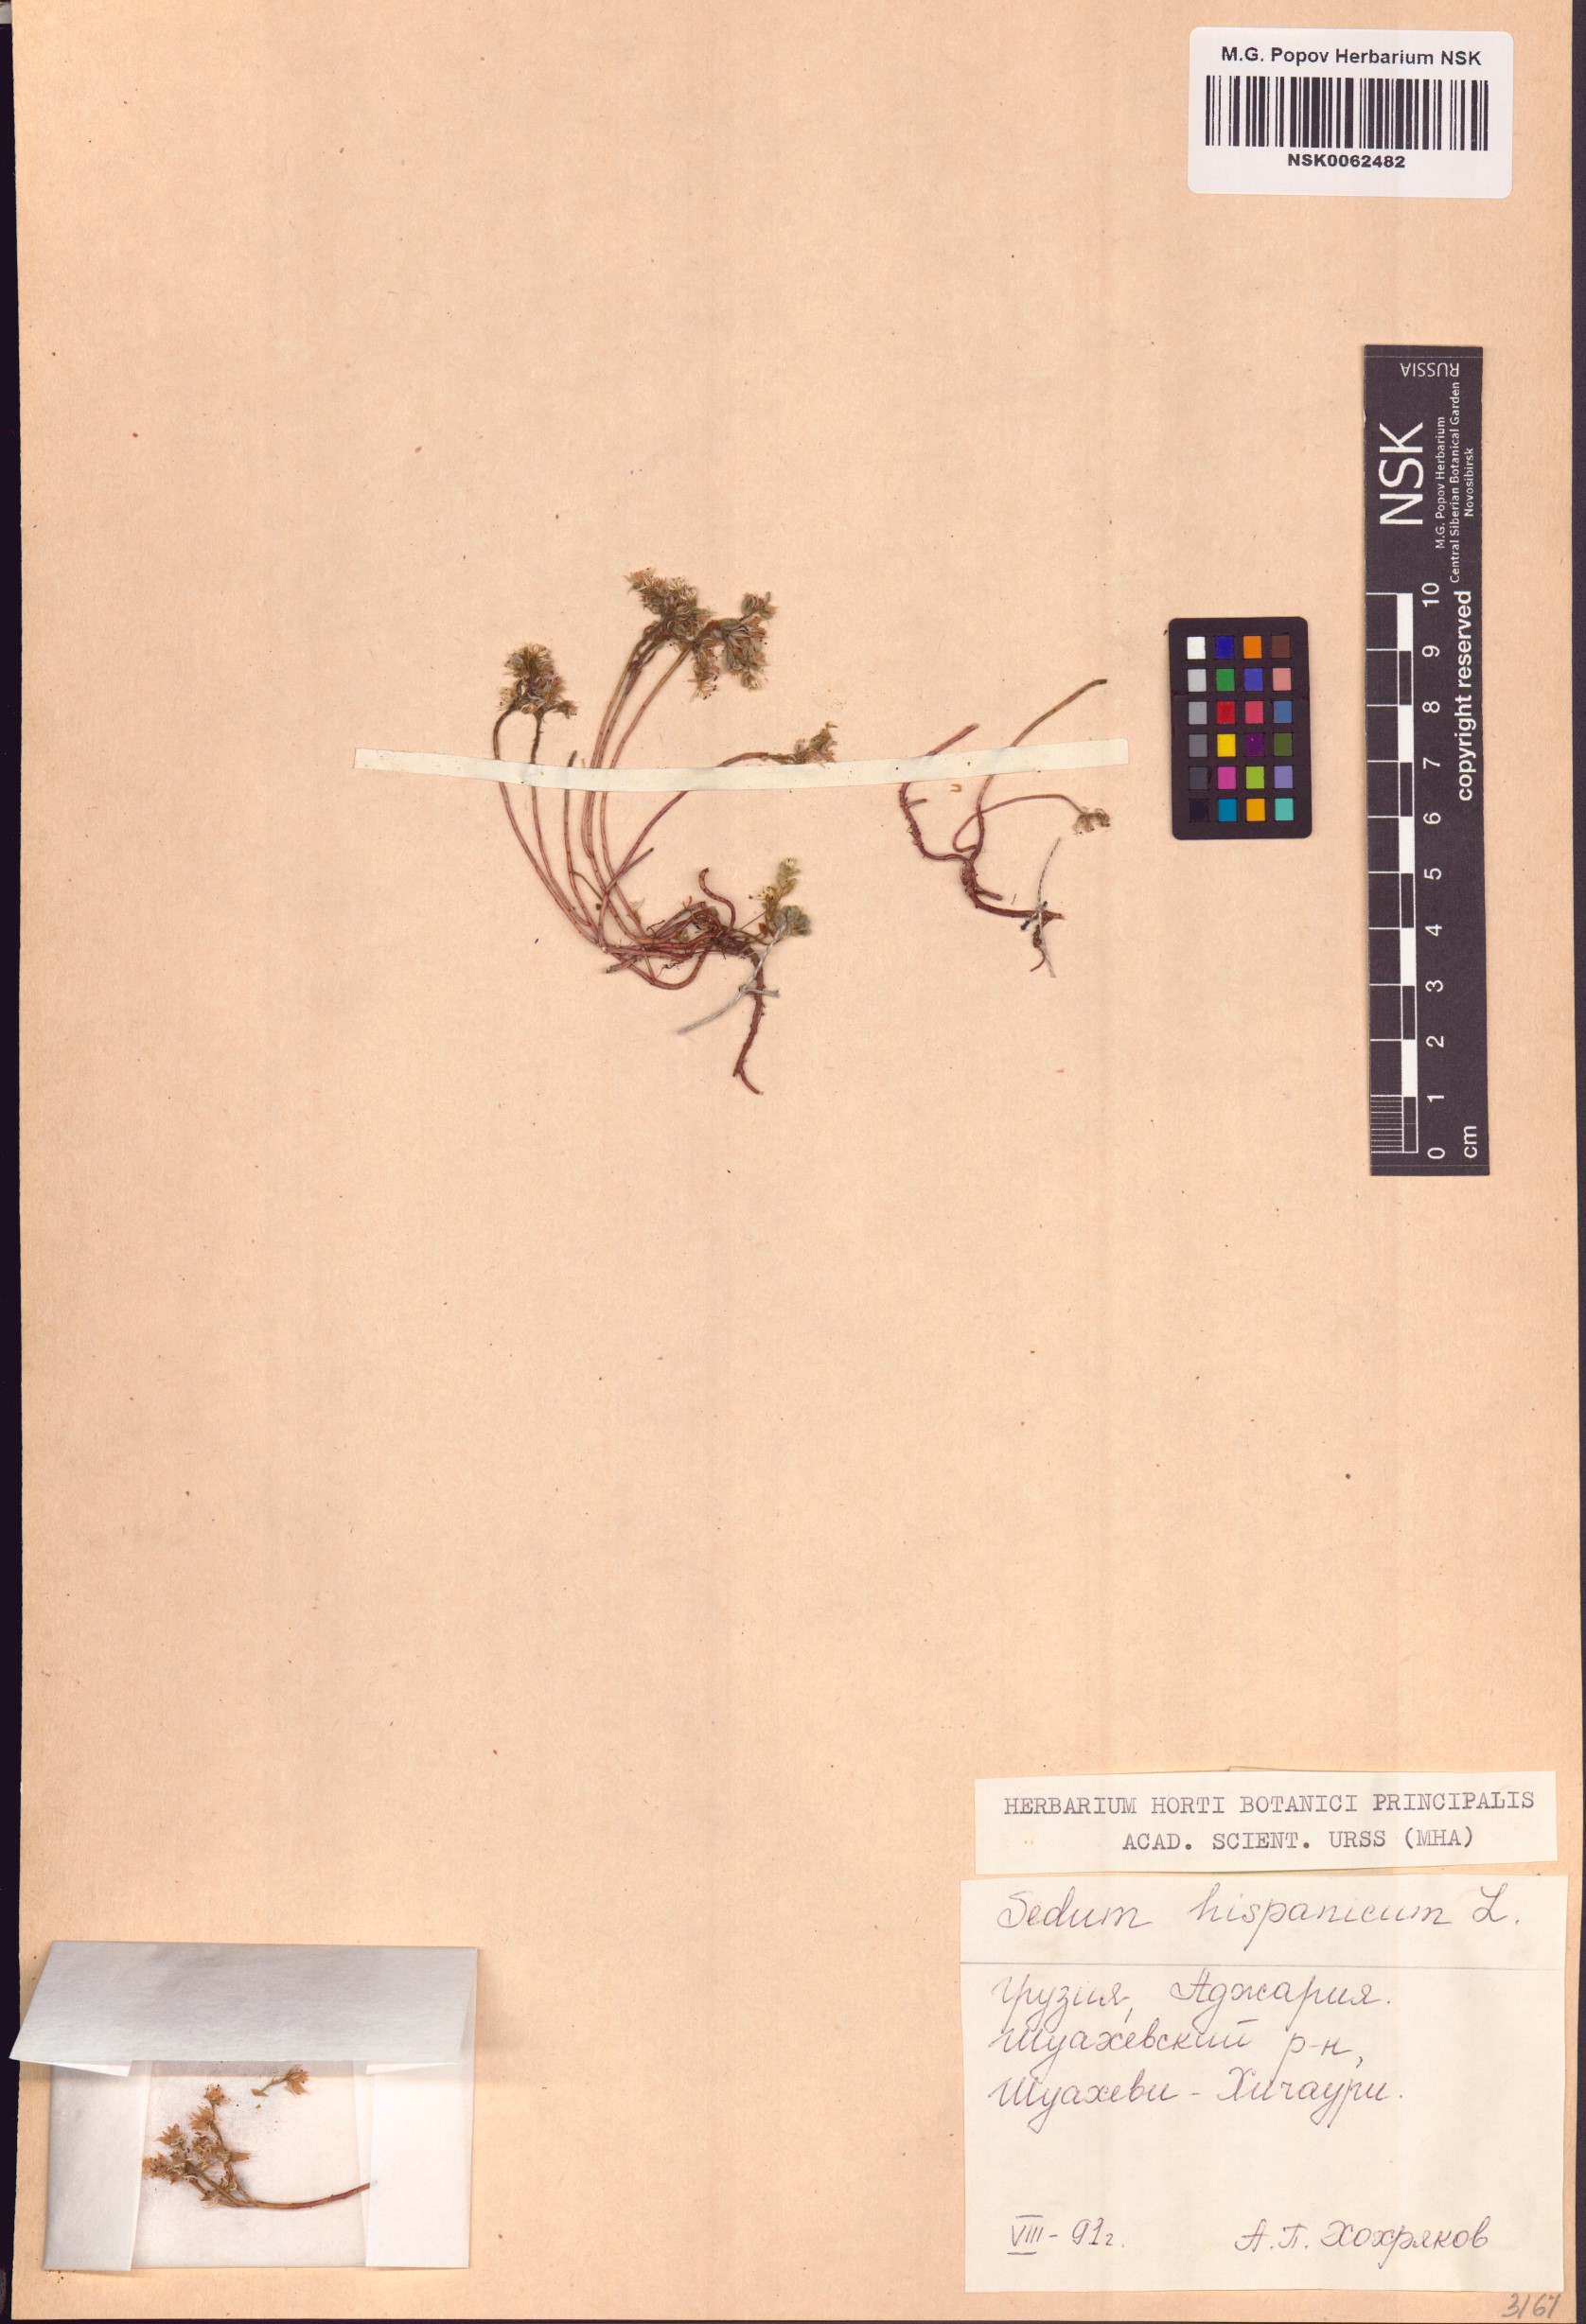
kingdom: Plantae
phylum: Tracheophyta
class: Magnoliopsida
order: Saxifragales
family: Crassulaceae
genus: Sedum
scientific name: Sedum hispanicum
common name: Spanish stonecrop
